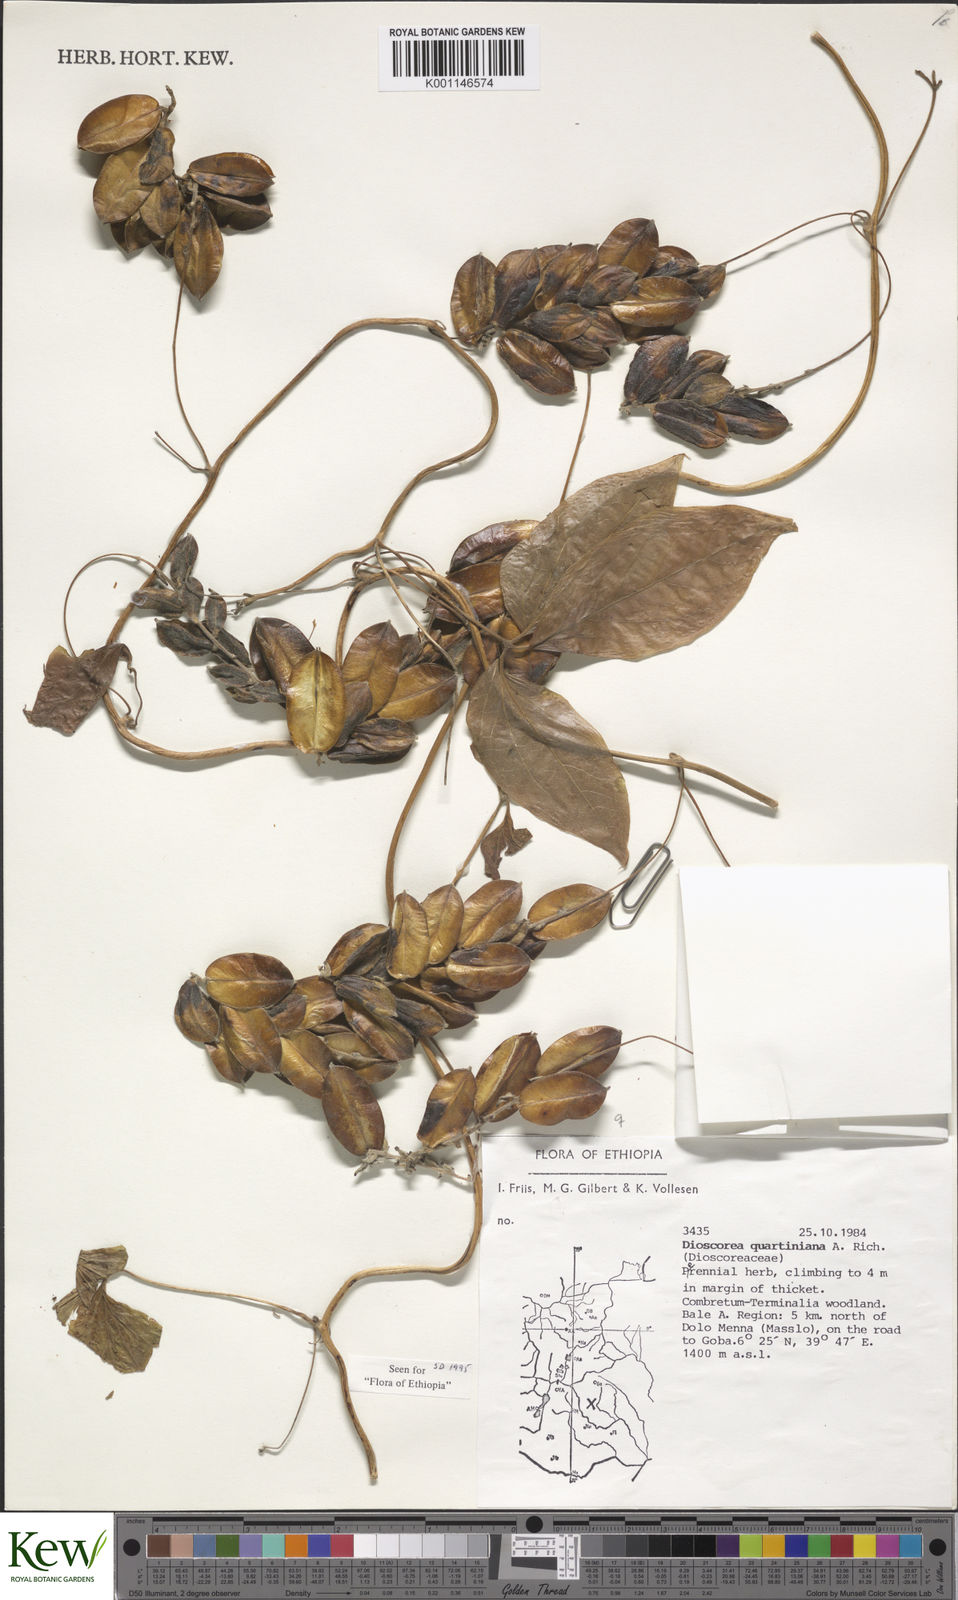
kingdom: Plantae
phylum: Tracheophyta
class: Liliopsida
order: Dioscoreales
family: Dioscoreaceae
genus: Dioscorea
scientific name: Dioscorea quartiniana
